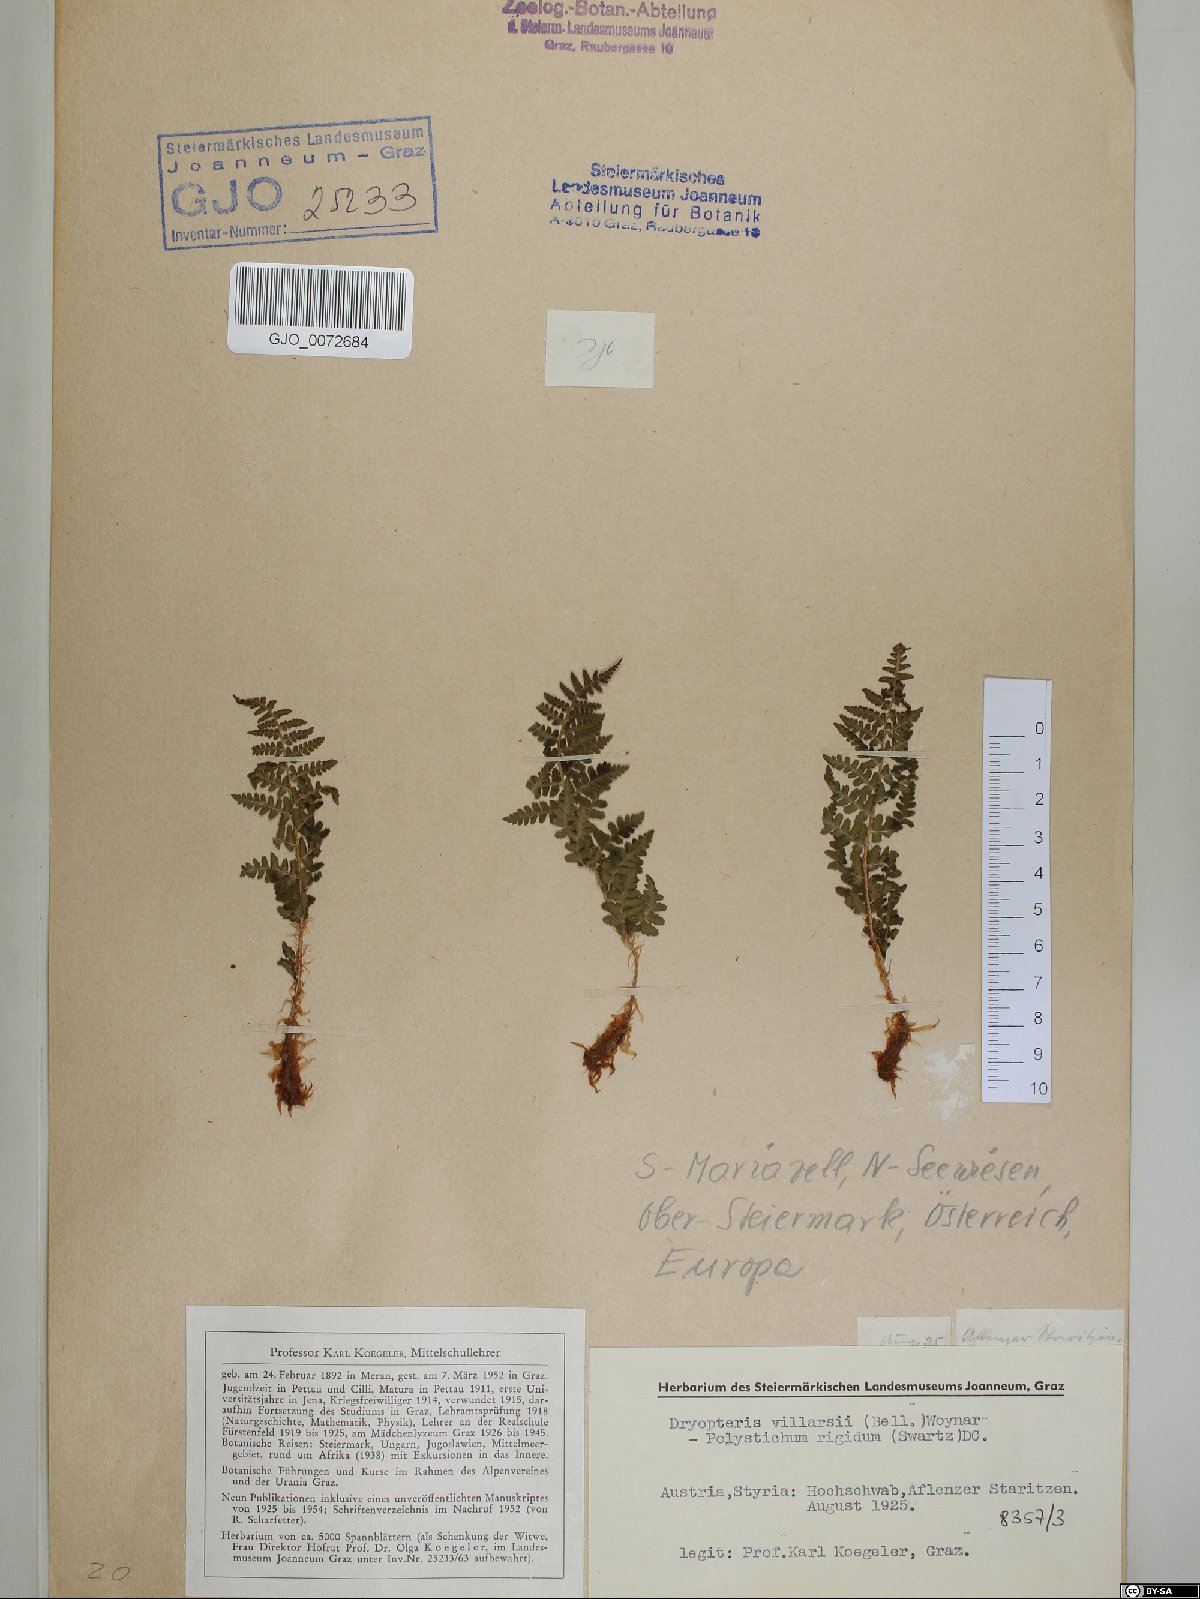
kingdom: Plantae
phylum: Tracheophyta
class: Polypodiopsida
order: Polypodiales
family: Dryopteridaceae
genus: Dryopteris
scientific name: Dryopteris villarii
